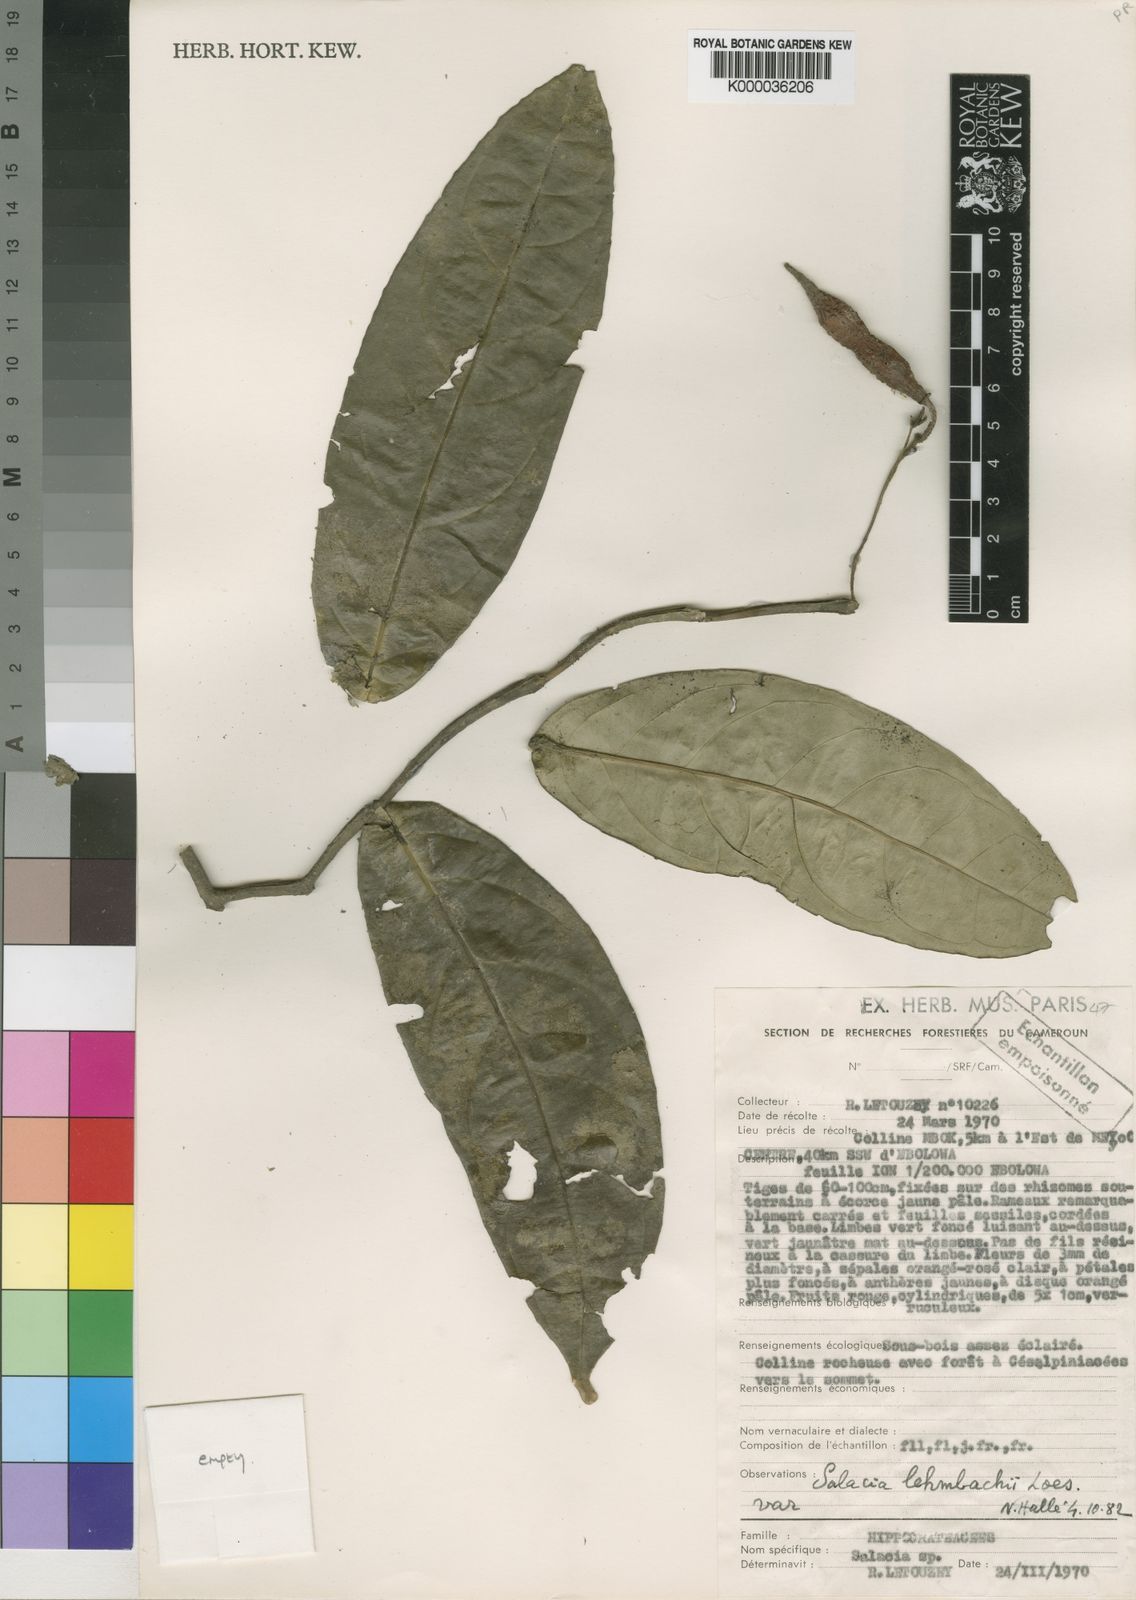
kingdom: Plantae
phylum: Tracheophyta
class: Magnoliopsida
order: Celastrales
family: Celastraceae
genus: Salacia
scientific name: Salacia lehmbachii
